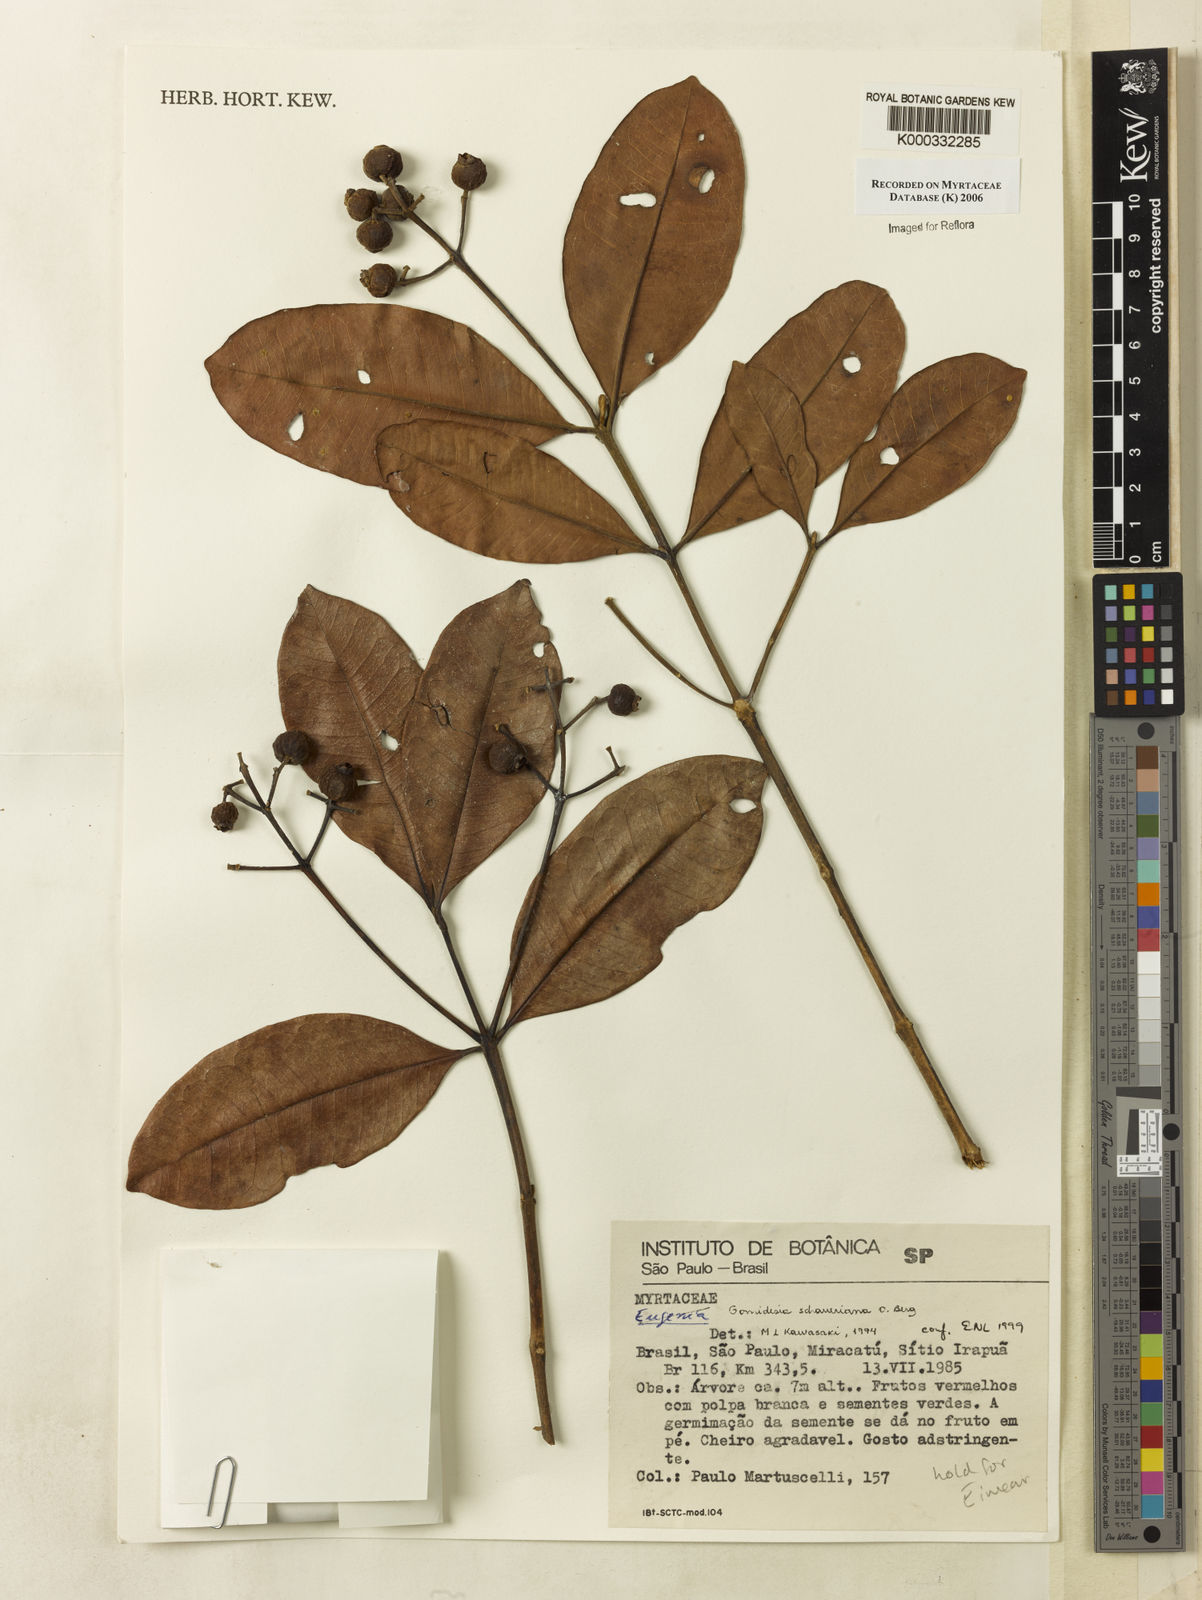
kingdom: Plantae
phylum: Tracheophyta
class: Magnoliopsida
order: Myrtales
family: Myrtaceae
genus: Myrcia
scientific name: Myrcia freyreissiana
